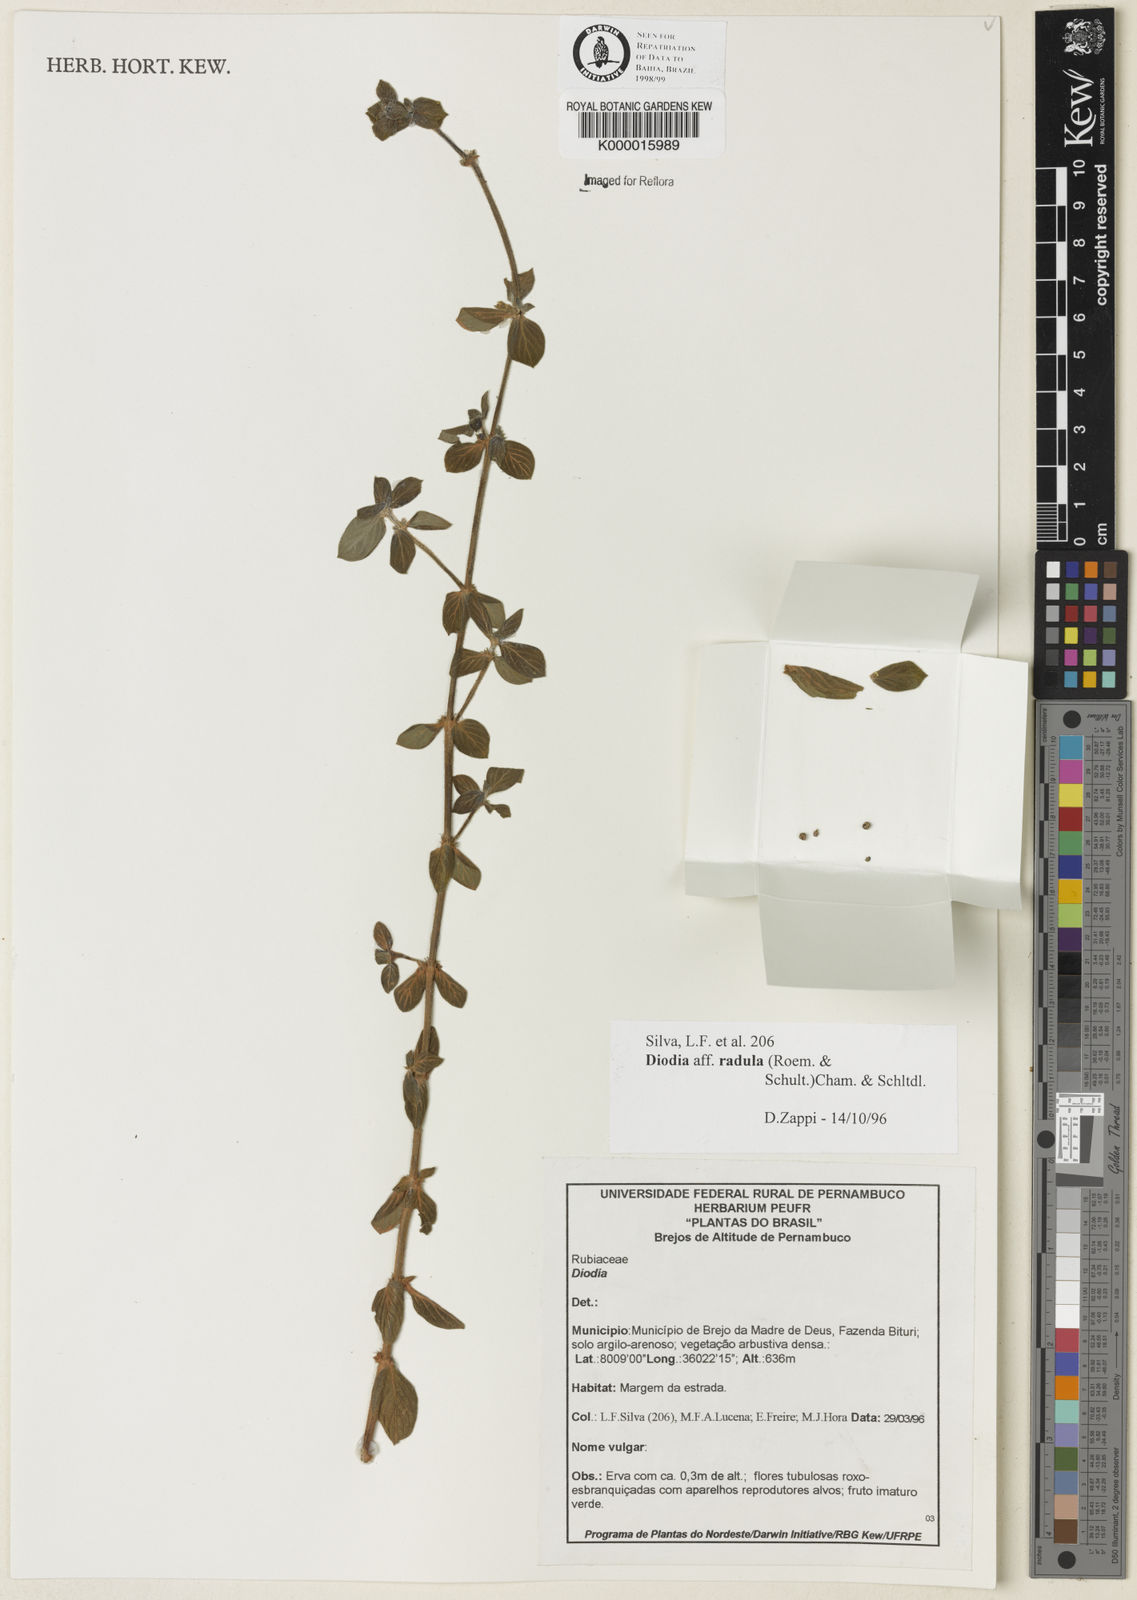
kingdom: Plantae
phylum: Tracheophyta
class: Magnoliopsida
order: Gentianales
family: Rubiaceae
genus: Hexasepalum
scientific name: Hexasepalum radulum
